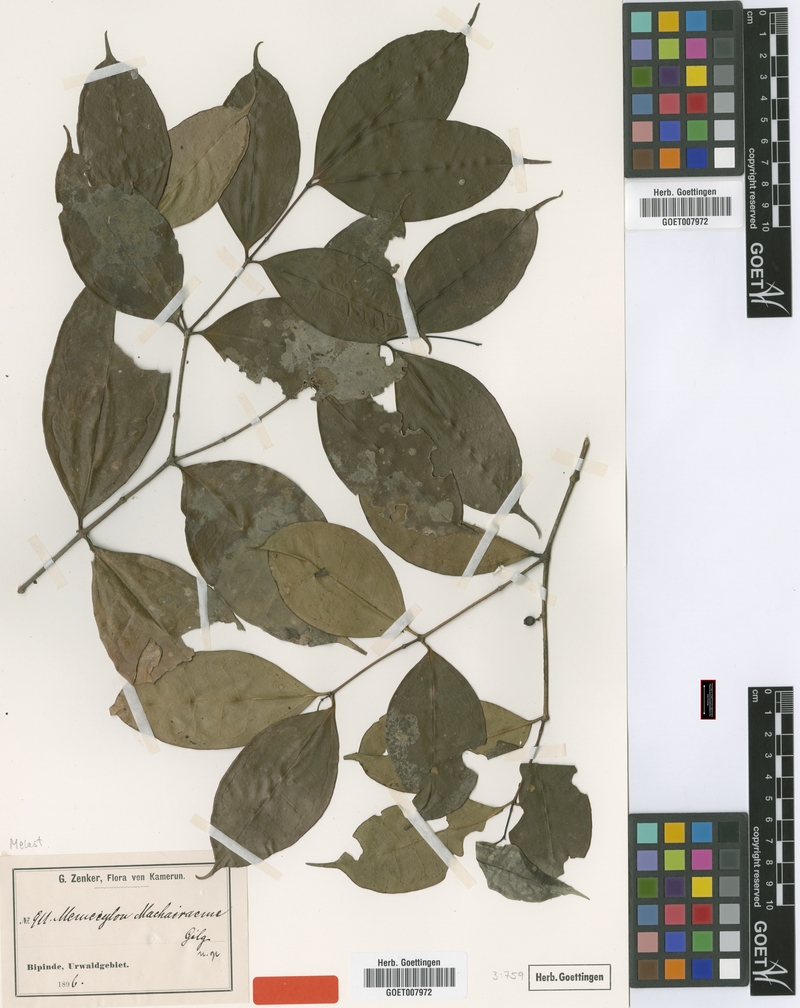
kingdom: Plantae
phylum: Tracheophyta
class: Magnoliopsida
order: Myrtales
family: Melastomataceae
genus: Memecylon
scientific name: Memecylon virescens
